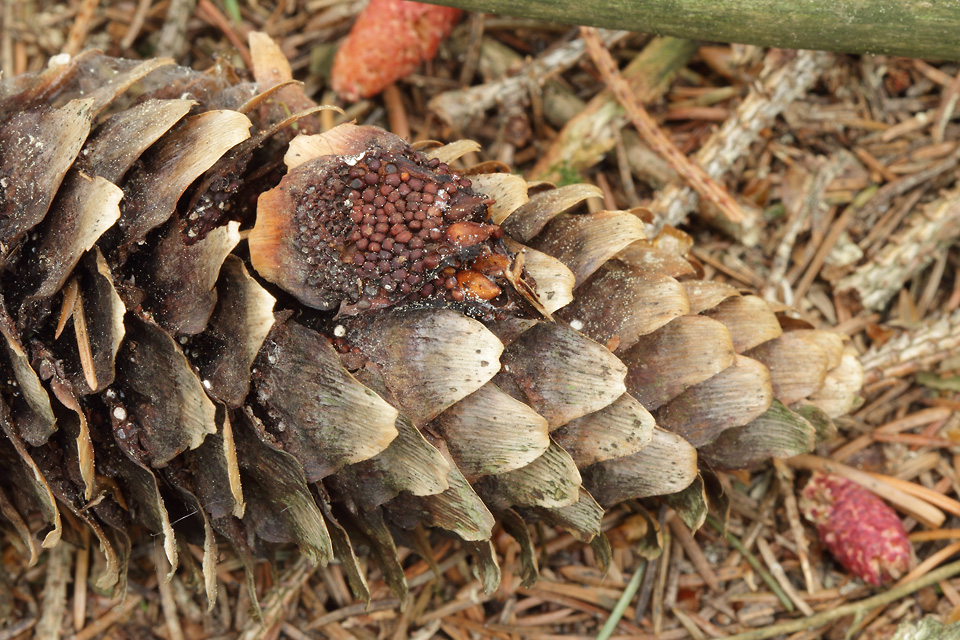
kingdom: Fungi
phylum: Basidiomycota
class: Pucciniomycetes
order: Pucciniales
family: Pucciniastraceae
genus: Thekopsora
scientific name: Thekopsora areolata
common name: grankogle-nålerust
